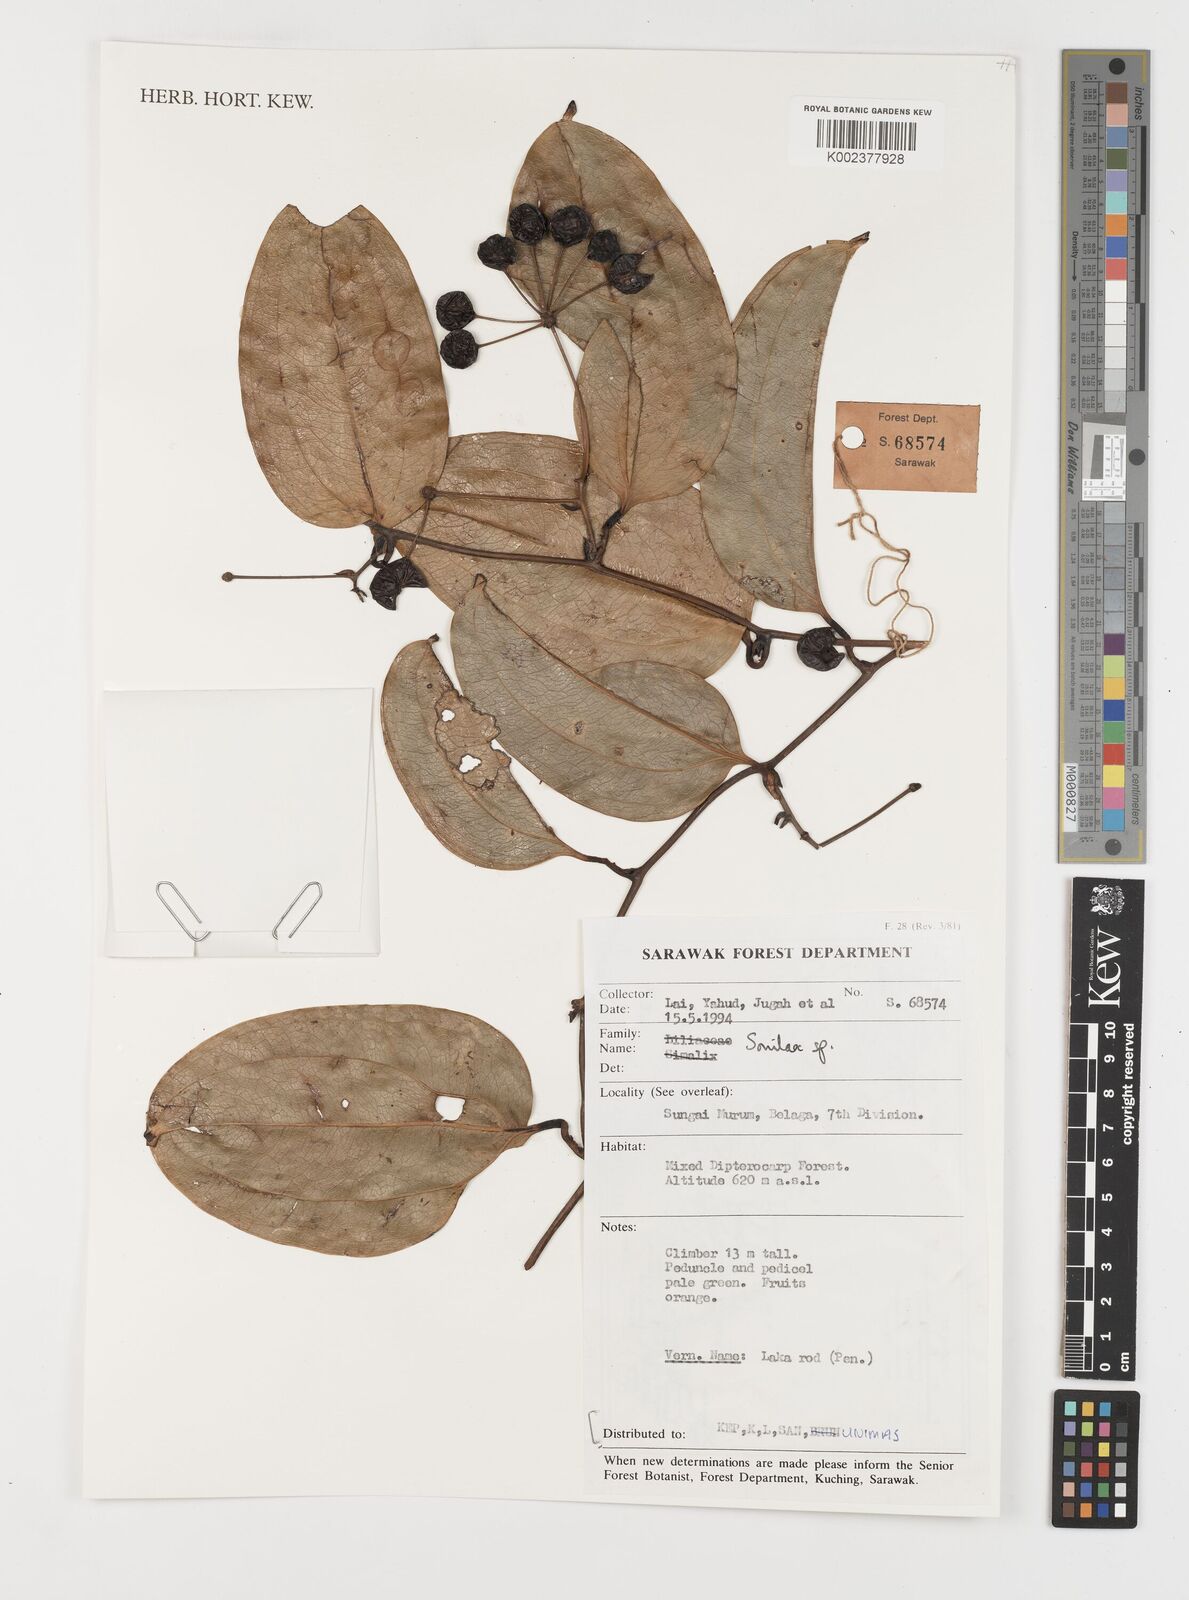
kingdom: Plantae
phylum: Tracheophyta
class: Liliopsida
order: Liliales
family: Smilacaceae
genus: Smilax
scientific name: Smilax
